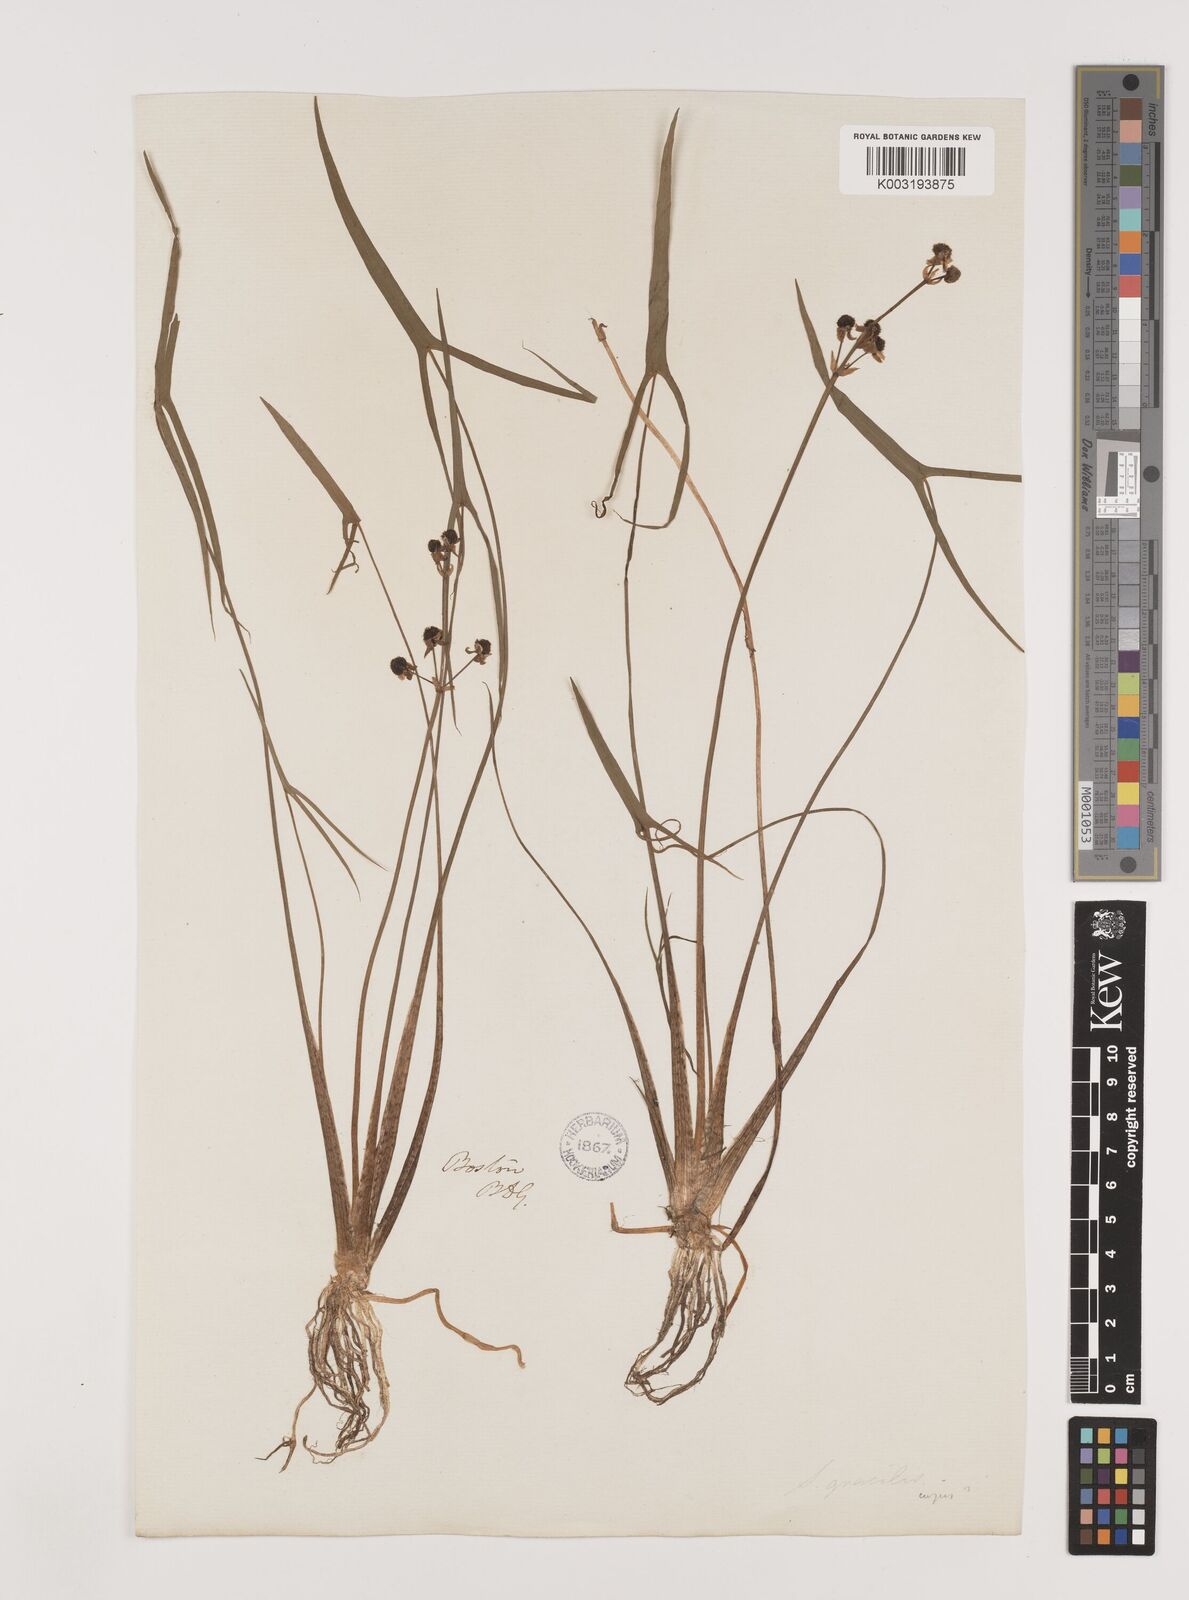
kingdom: Plantae
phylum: Tracheophyta
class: Liliopsida
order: Alismatales
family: Alismataceae
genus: Sagittaria
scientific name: Sagittaria latifolia
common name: Duck-potato
